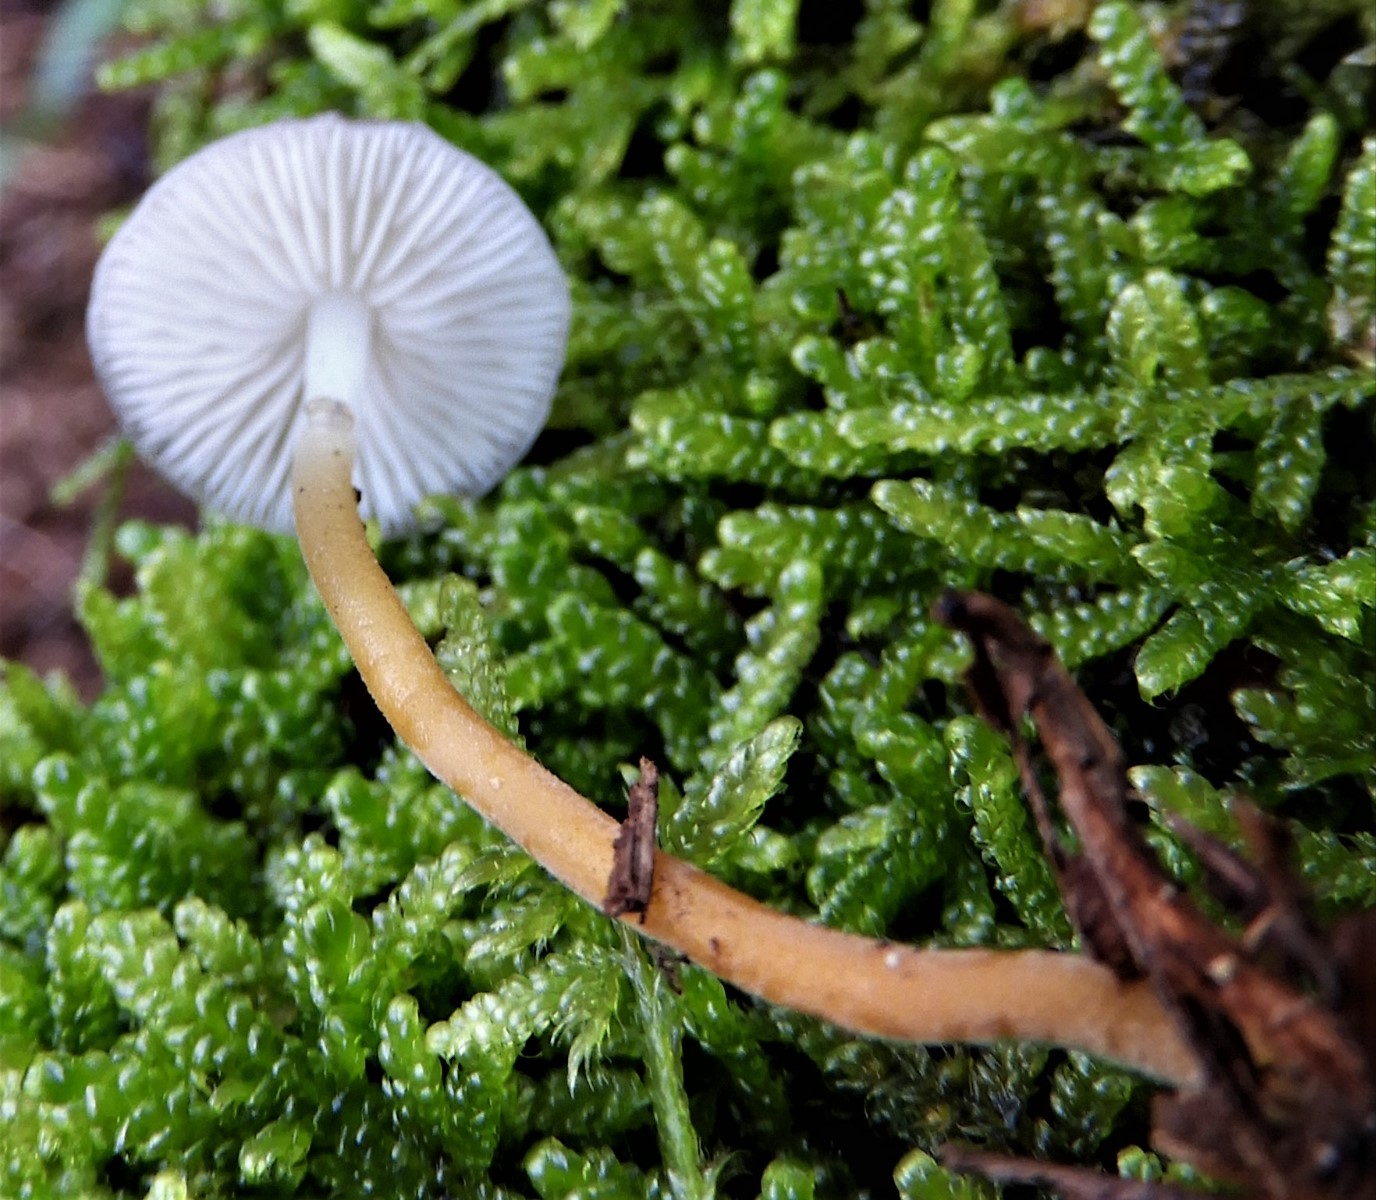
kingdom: Fungi
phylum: Basidiomycota
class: Agaricomycetes
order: Agaricales
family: Physalacriaceae
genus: Strobilurus
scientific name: Strobilurus esculentus
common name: gran-koglehat
